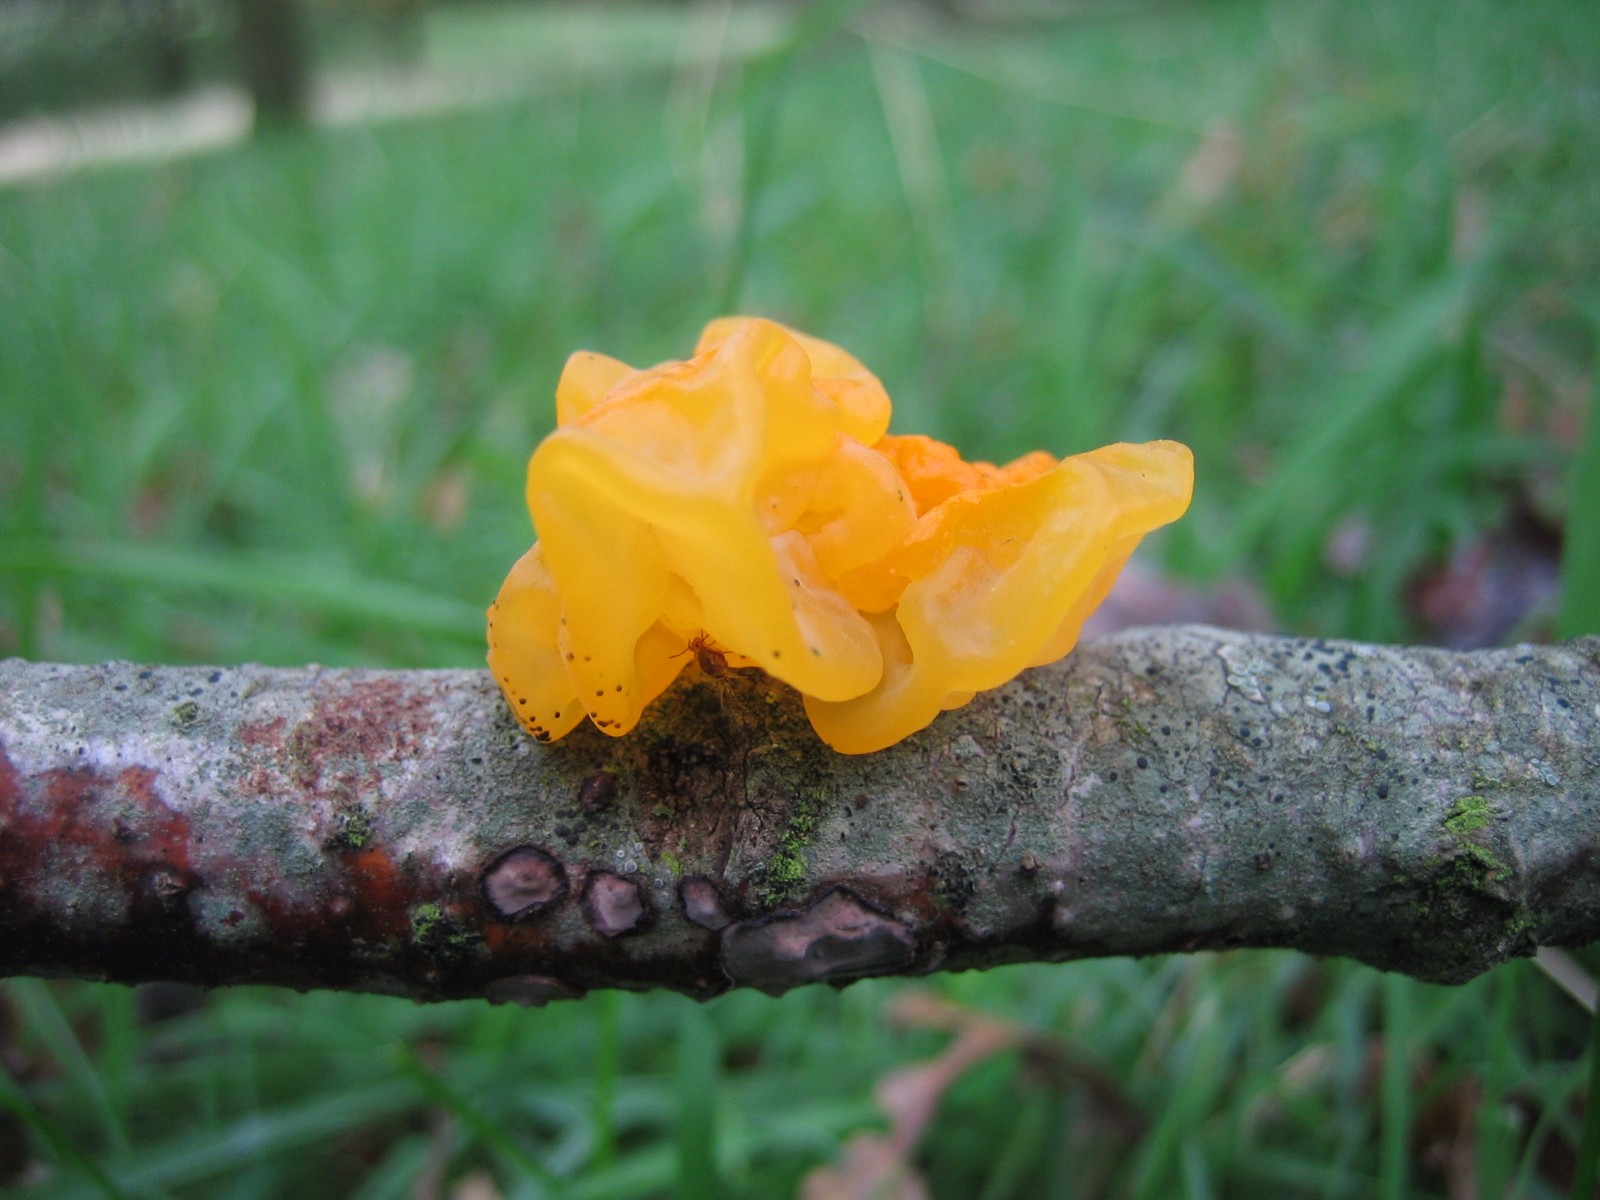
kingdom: Fungi
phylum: Basidiomycota
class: Tremellomycetes
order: Tremellales
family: Tremellaceae
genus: Tremella
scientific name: Tremella mesenterica
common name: gul bævresvamp
